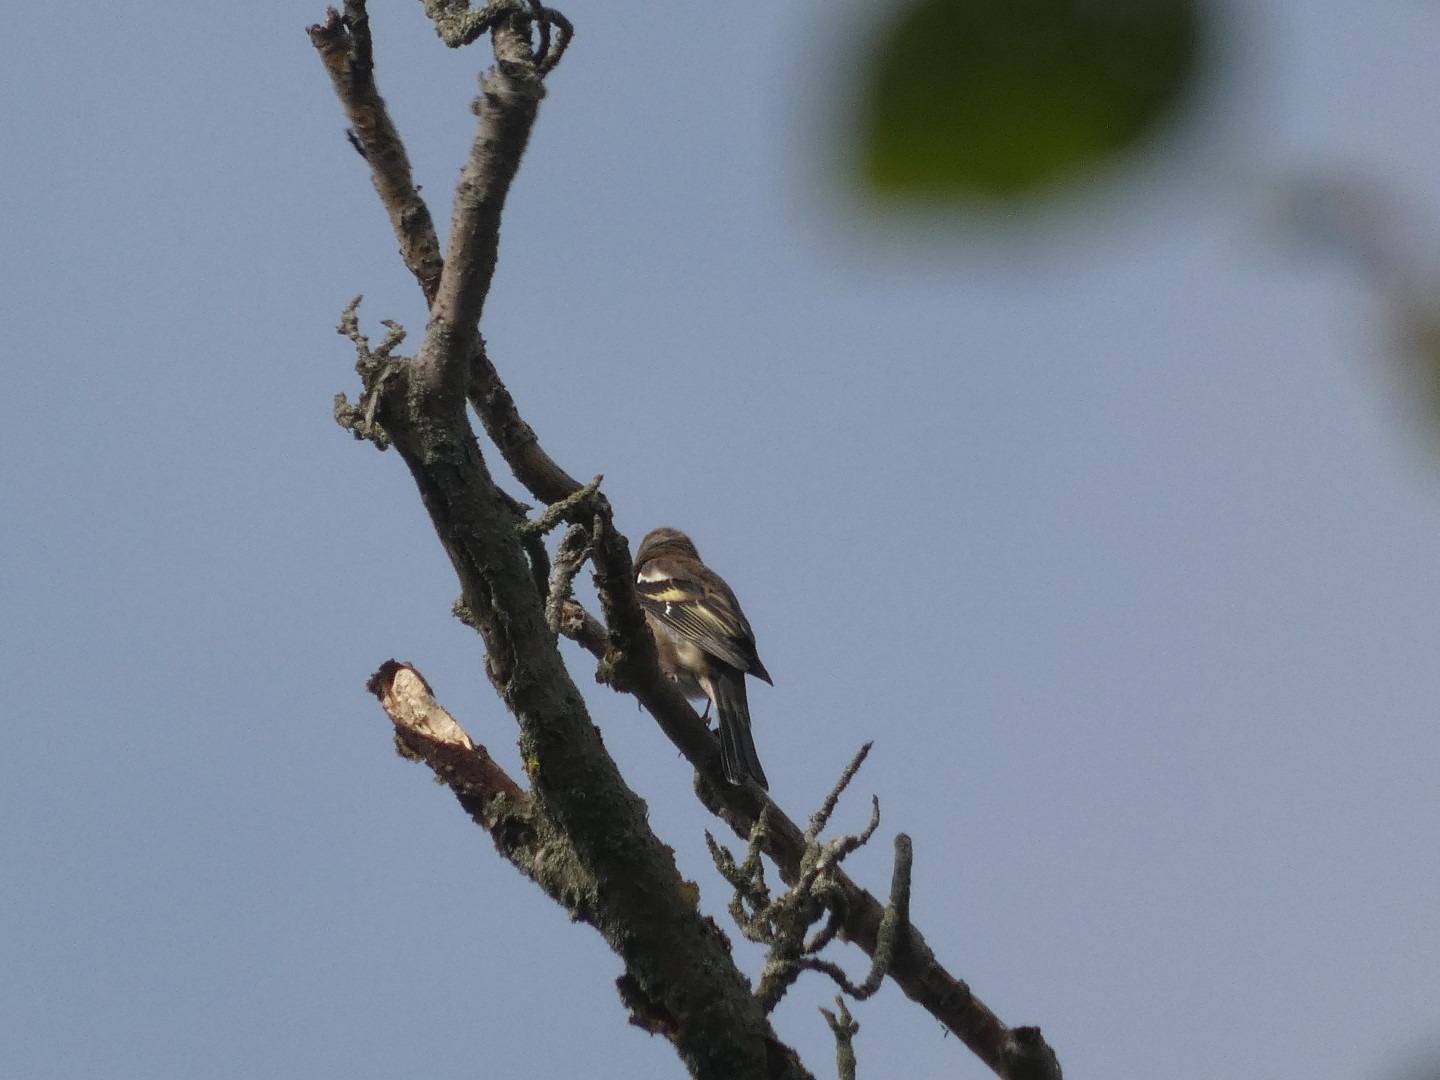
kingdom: Animalia
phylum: Chordata
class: Aves
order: Passeriformes
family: Fringillidae
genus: Fringilla
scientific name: Fringilla coelebs
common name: Bogfinke
